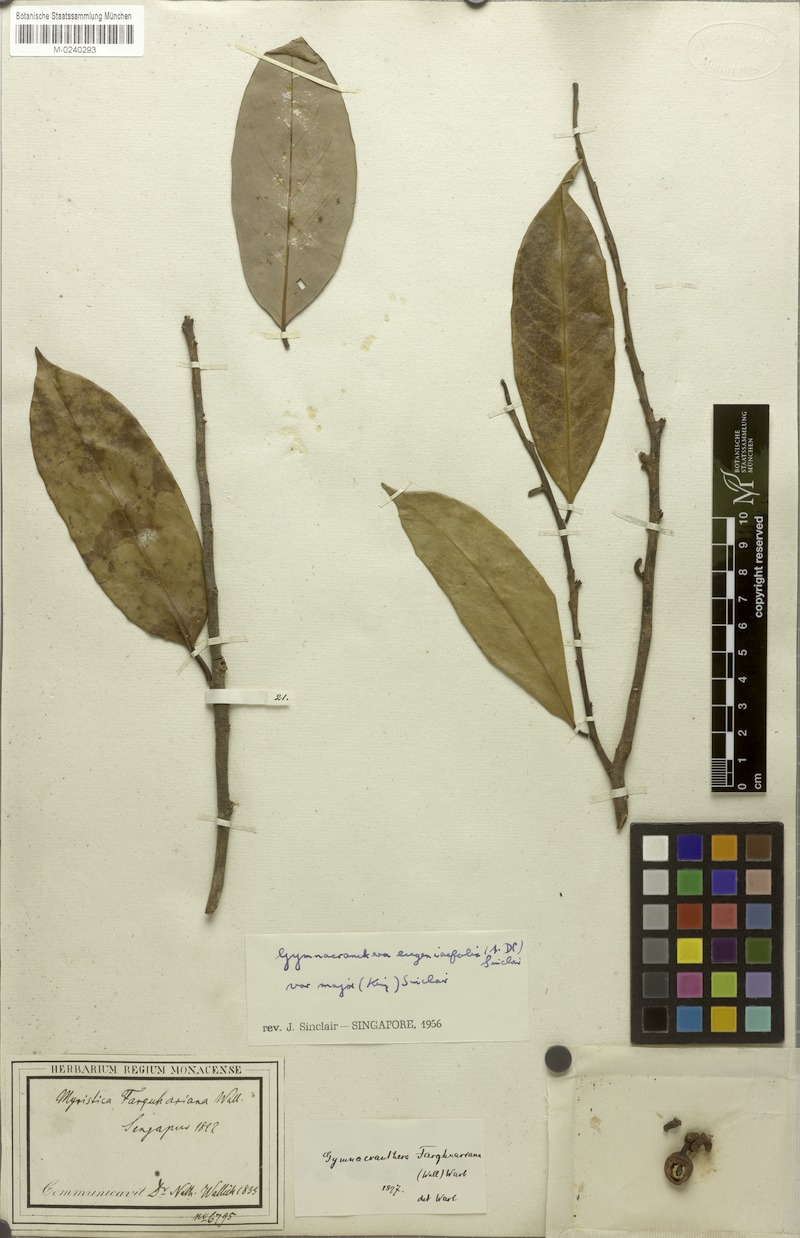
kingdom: Plantae
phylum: Tracheophyta
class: Magnoliopsida
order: Magnoliales
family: Myristicaceae
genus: Gymnacranthera
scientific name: Gymnacranthera farquhariana
